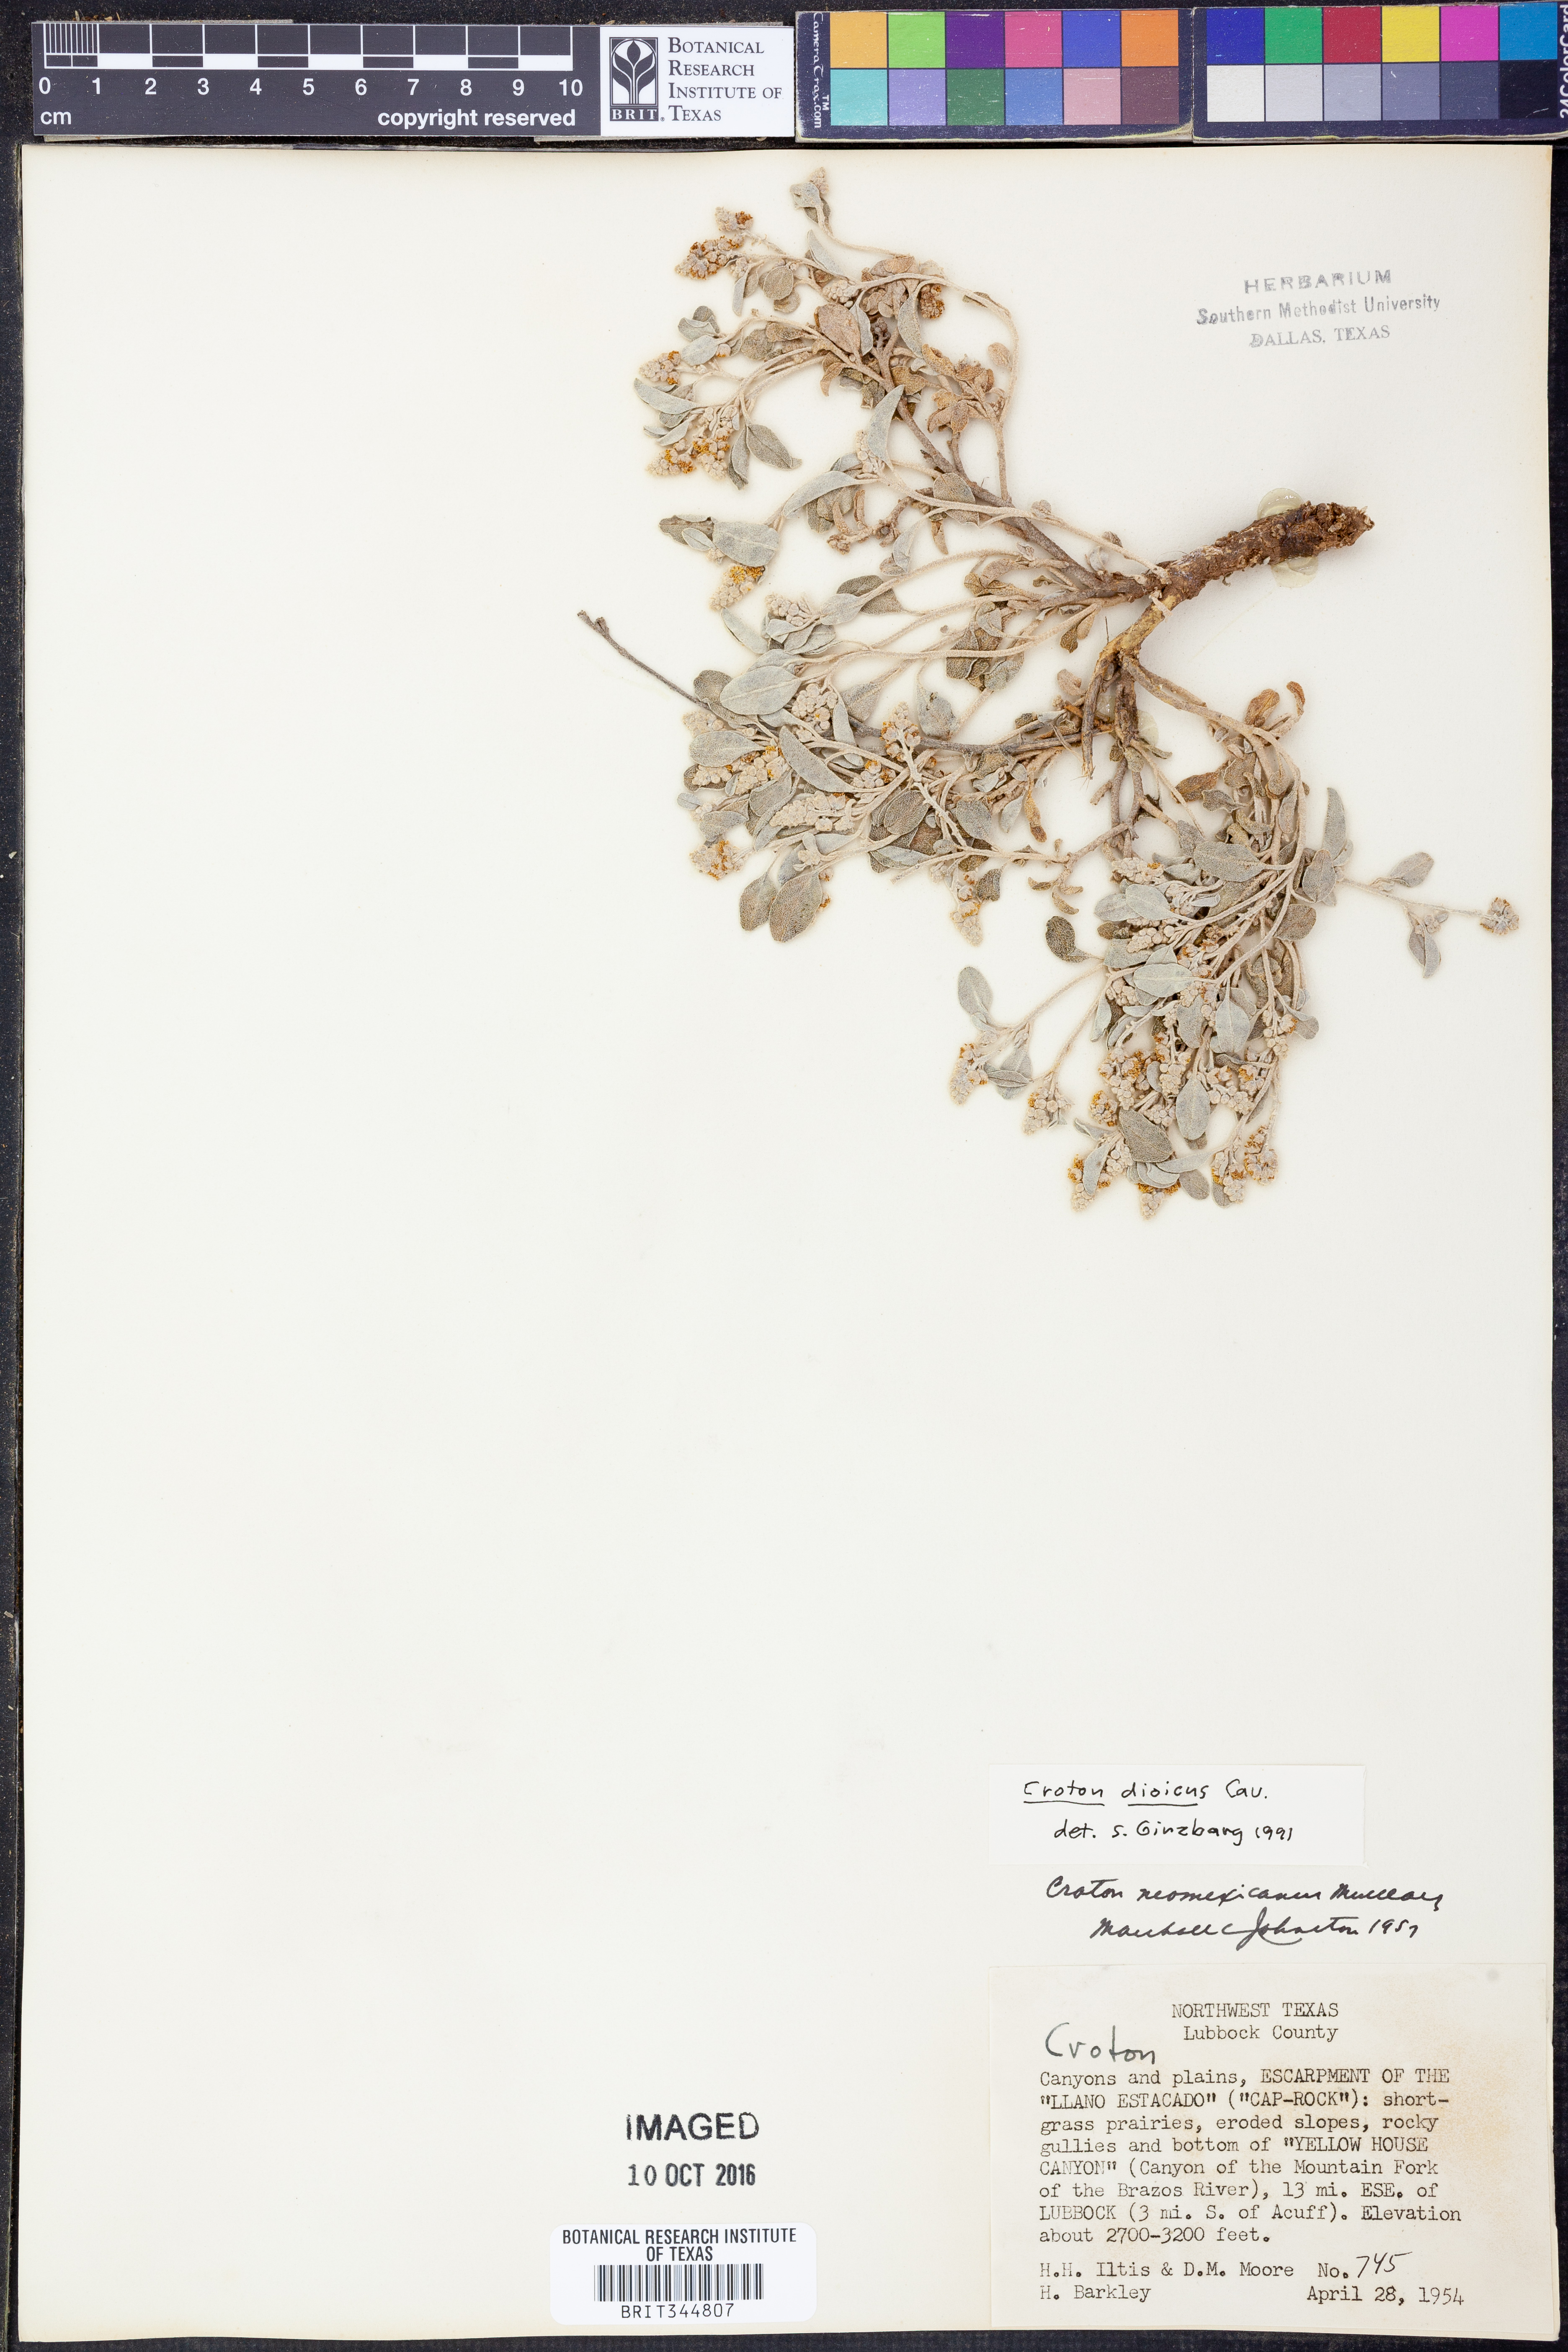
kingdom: Plantae
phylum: Tracheophyta
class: Magnoliopsida
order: Malpighiales
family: Euphorbiaceae
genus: Croton
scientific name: Croton dioicus
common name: Grassland croton
